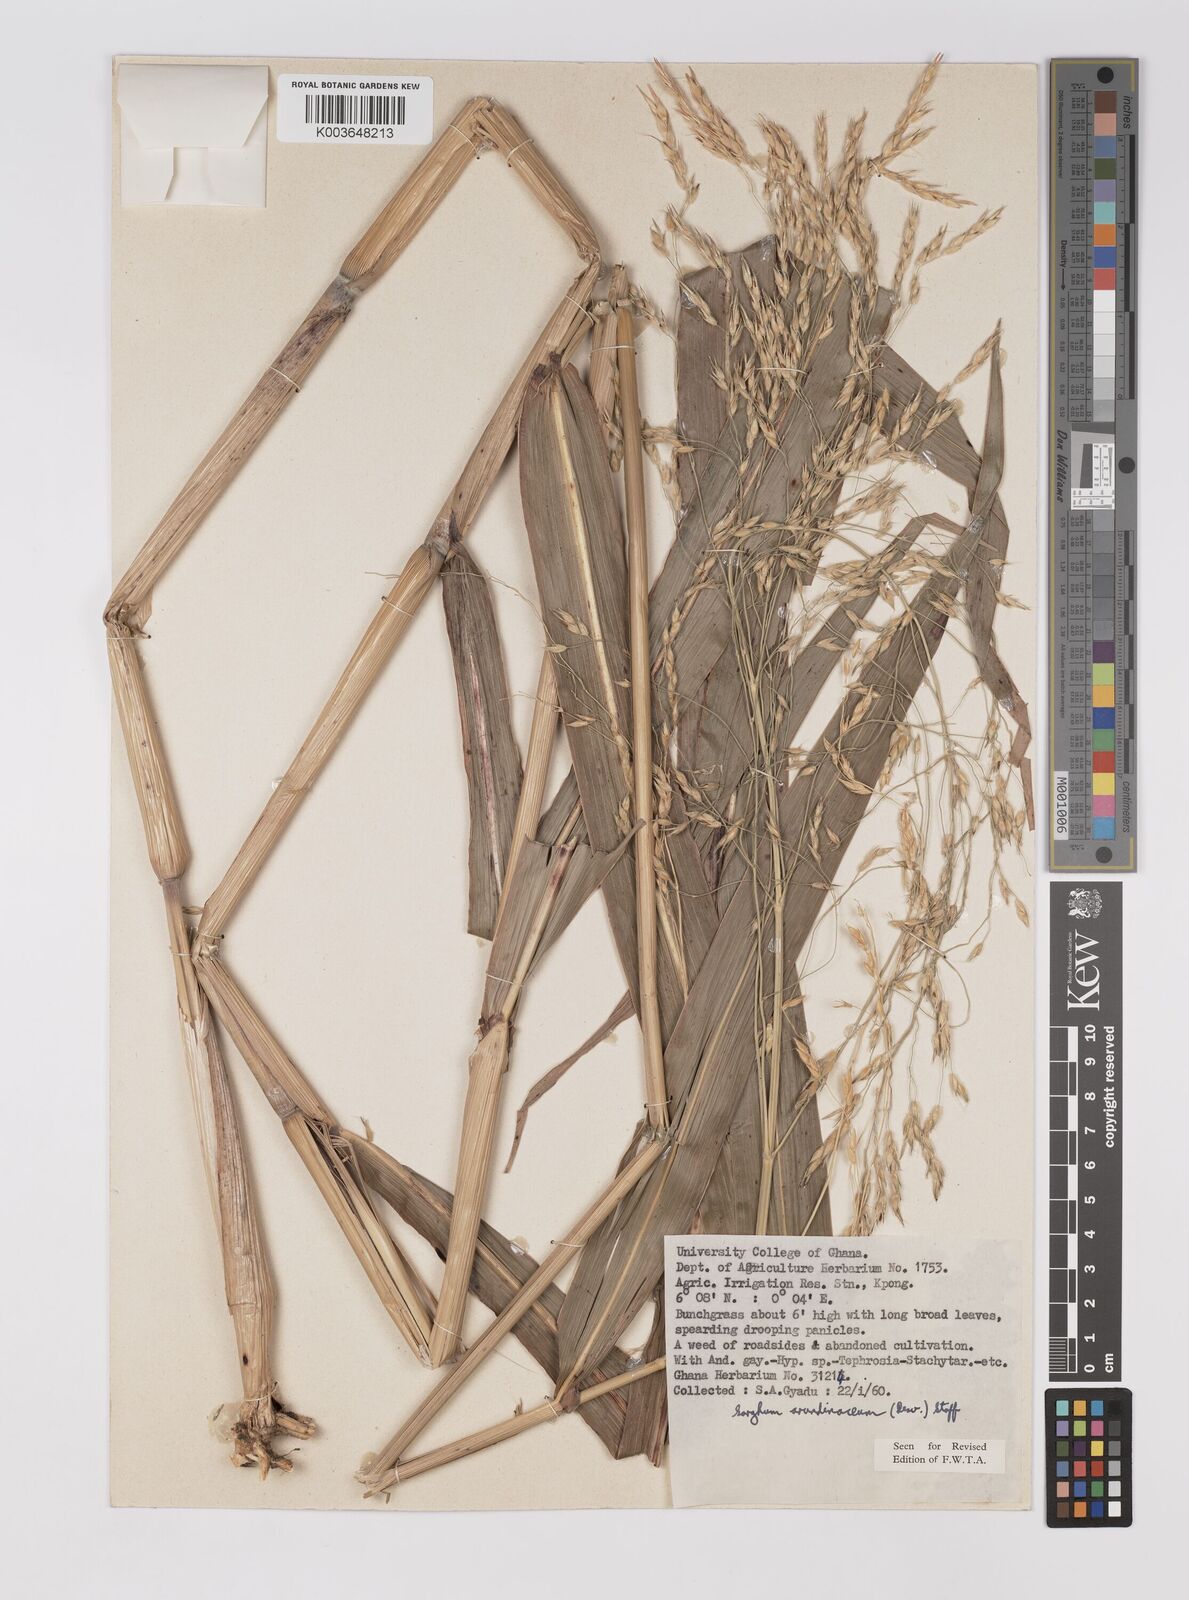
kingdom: Plantae
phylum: Tracheophyta
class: Liliopsida
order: Poales
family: Poaceae
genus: Sorghum
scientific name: Sorghum arundinaceum
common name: Sorghum
